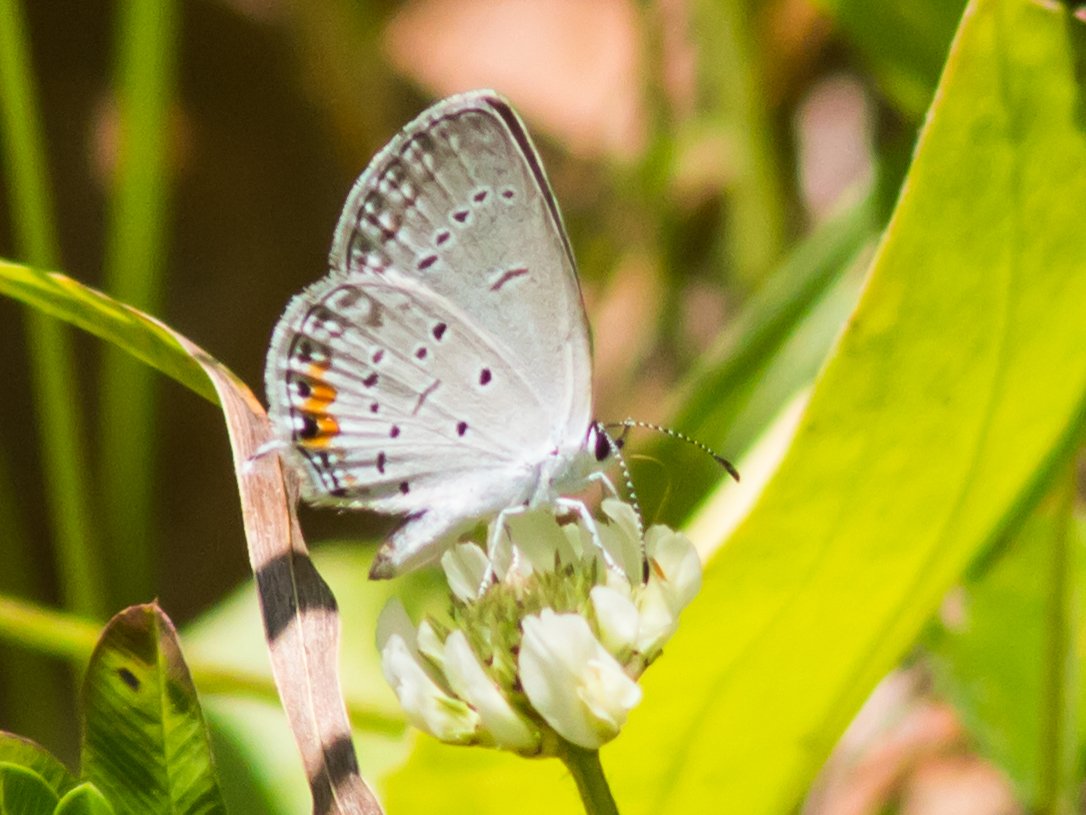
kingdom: Animalia
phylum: Arthropoda
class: Insecta
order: Lepidoptera
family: Lycaenidae
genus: Elkalyce
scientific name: Elkalyce comyntas
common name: Eastern Tailed-Blue
